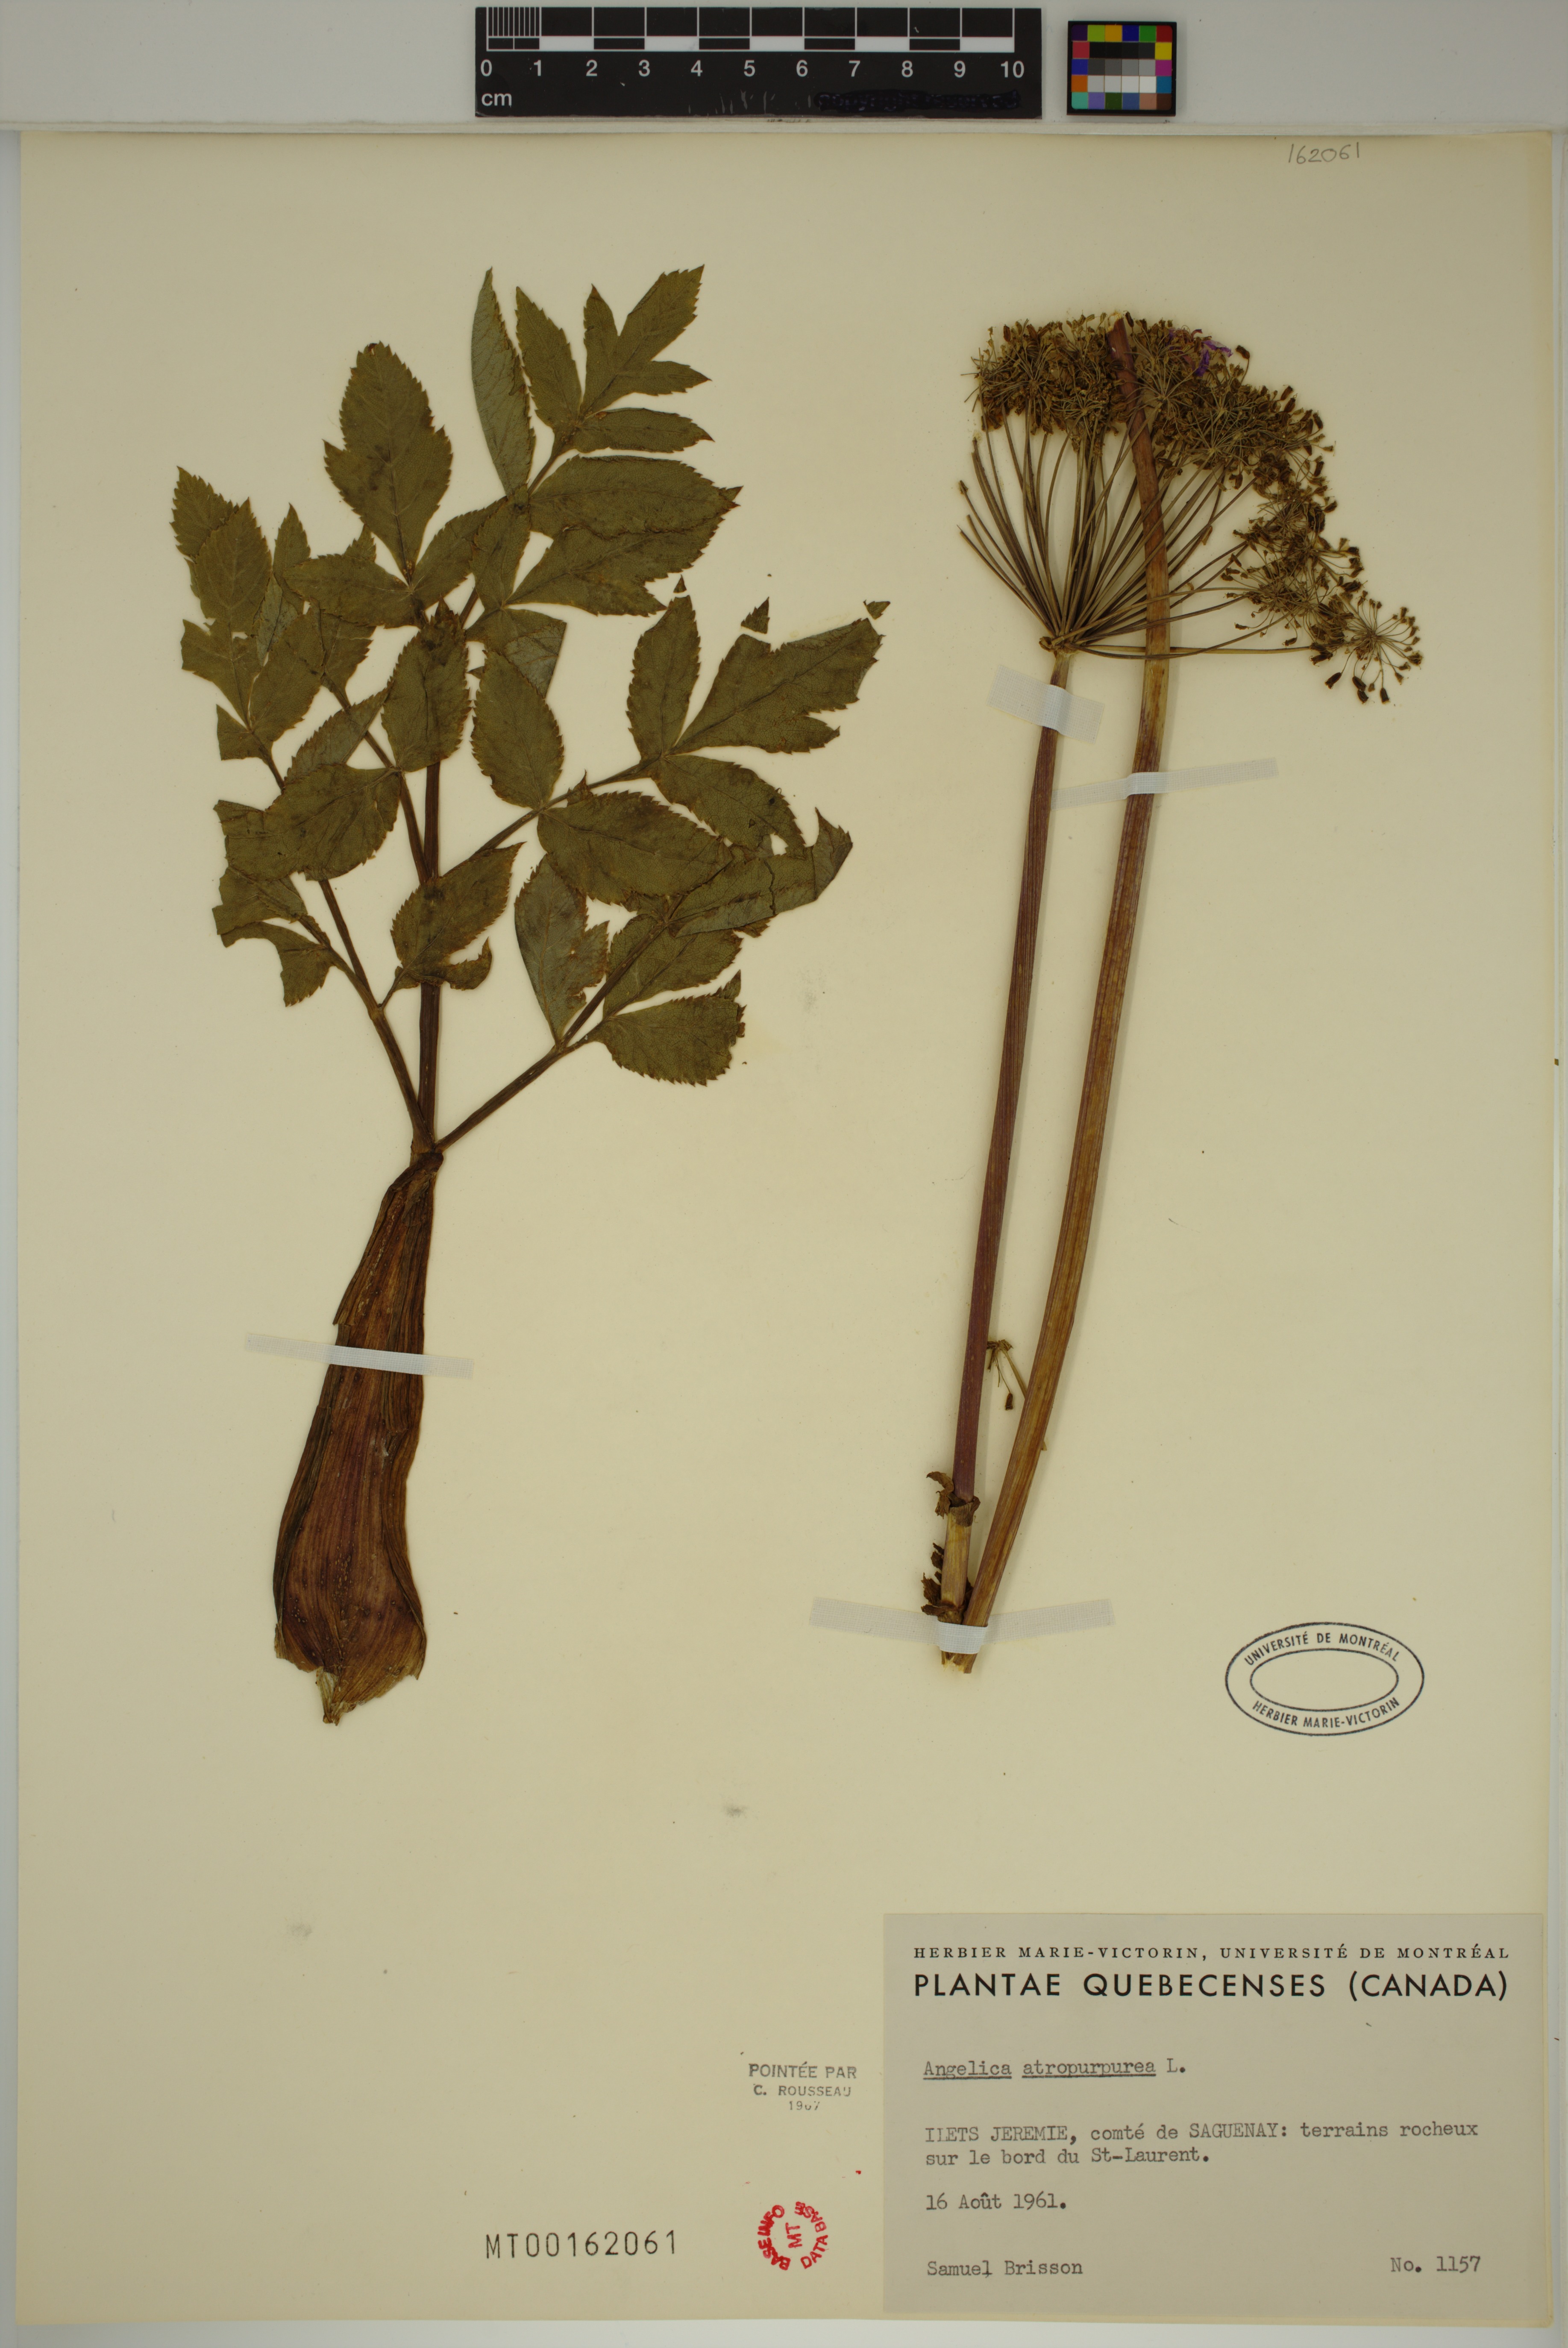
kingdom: Plantae
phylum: Tracheophyta
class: Magnoliopsida
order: Apiales
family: Apiaceae
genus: Angelica
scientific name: Angelica atropurpurea
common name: Great angelica
